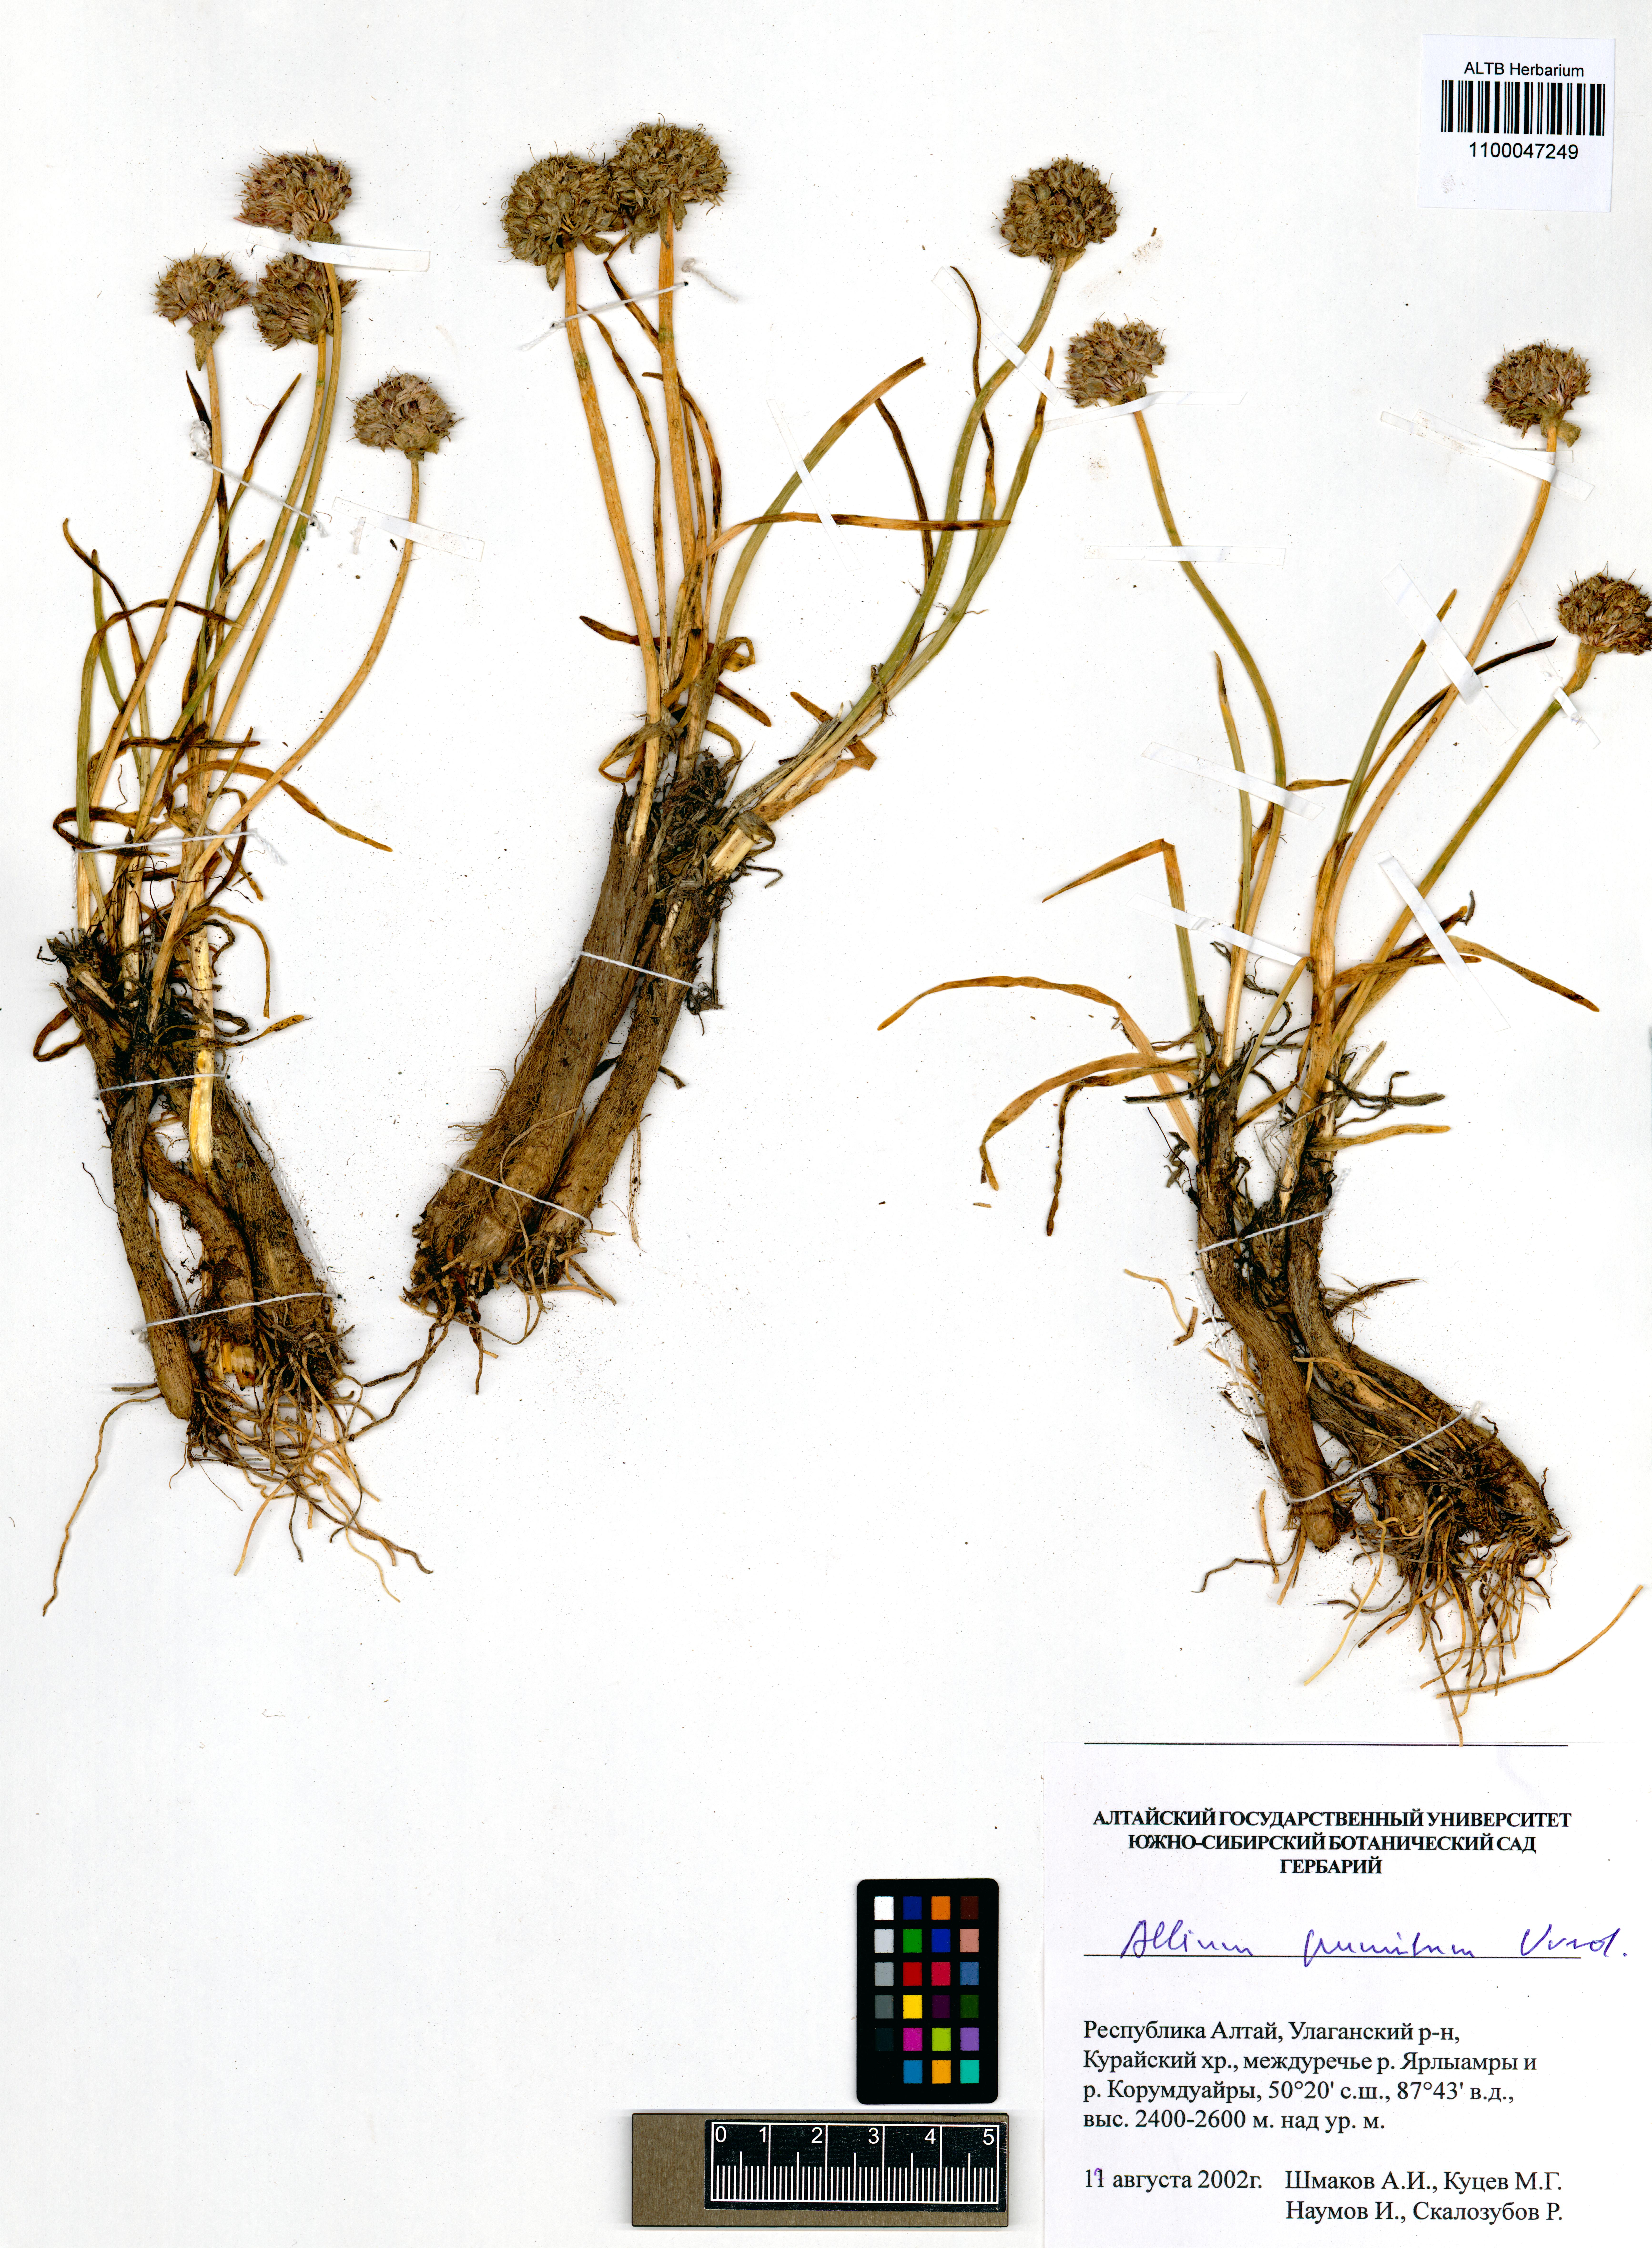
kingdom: Plantae
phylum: Tracheophyta
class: Liliopsida
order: Asparagales
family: Amaryllidaceae
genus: Allium
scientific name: Allium pumilum
